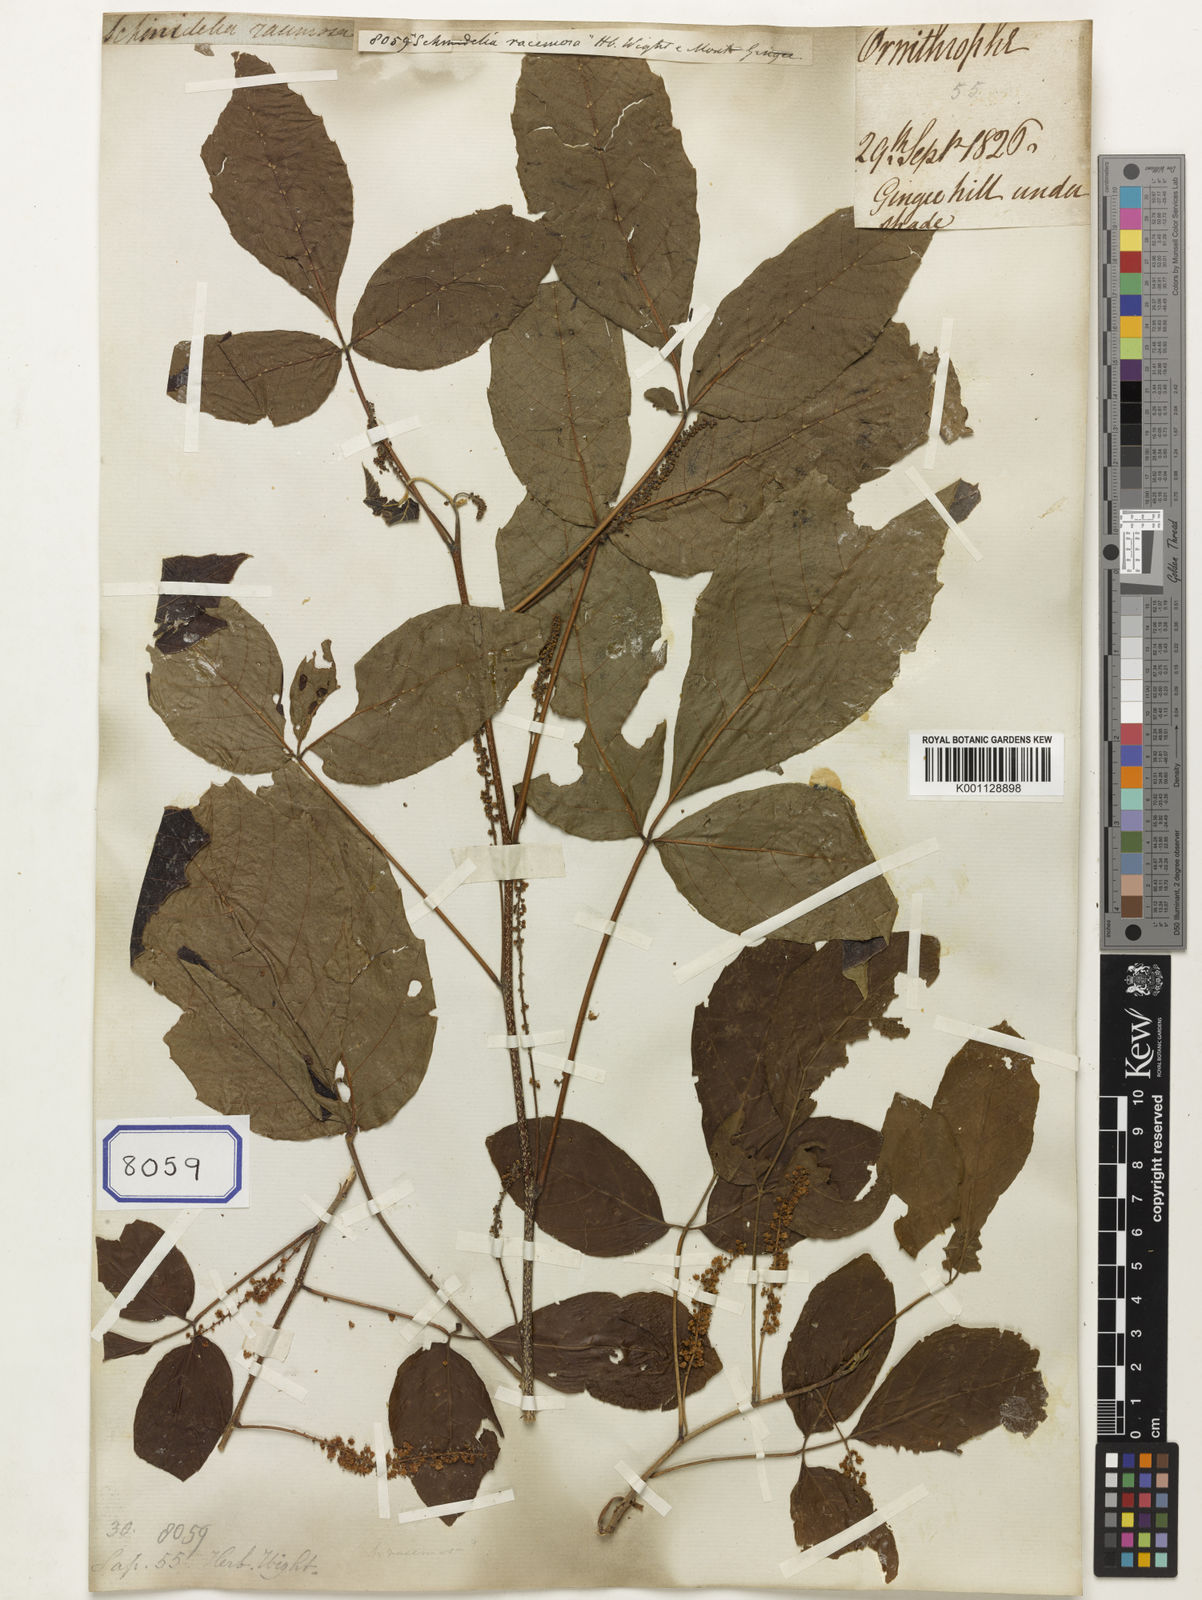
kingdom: Plantae
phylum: Tracheophyta
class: Magnoliopsida
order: Sapindales
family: Sapindaceae
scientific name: Sapindaceae
